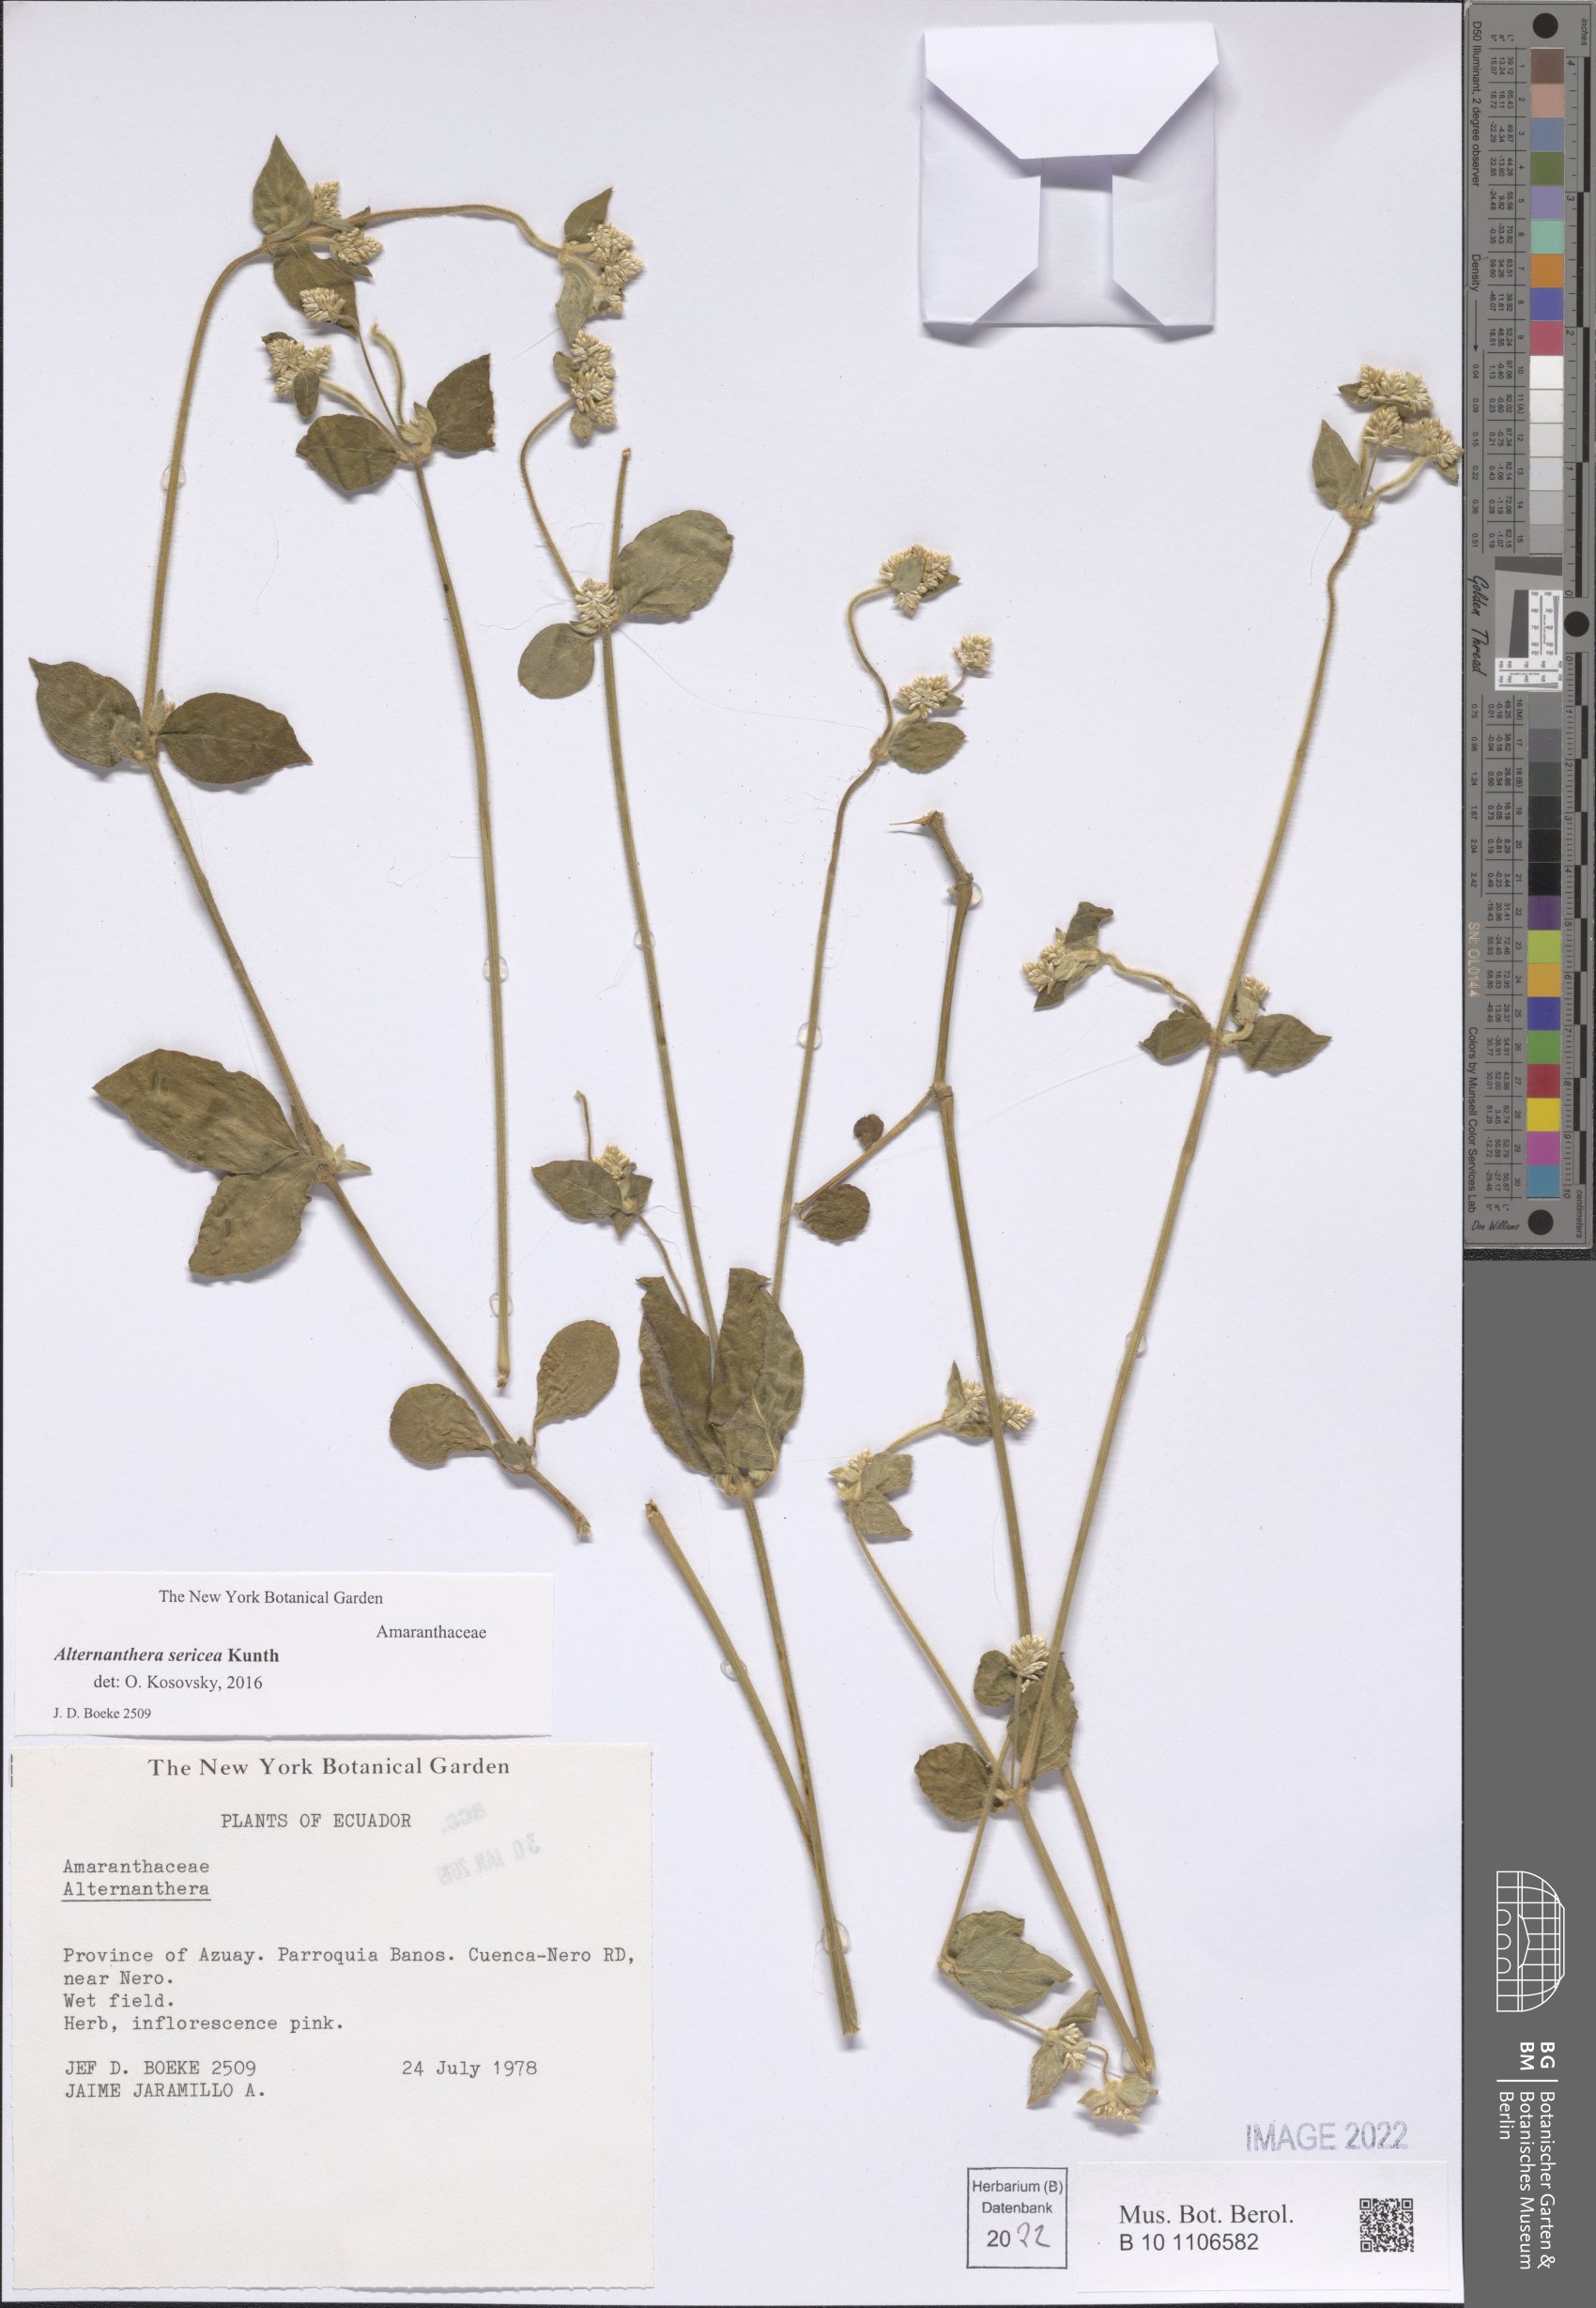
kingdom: Plantae
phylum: Tracheophyta
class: Magnoliopsida
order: Caryophyllales
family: Amaranthaceae
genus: Alternanthera
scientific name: Alternanthera sericea
